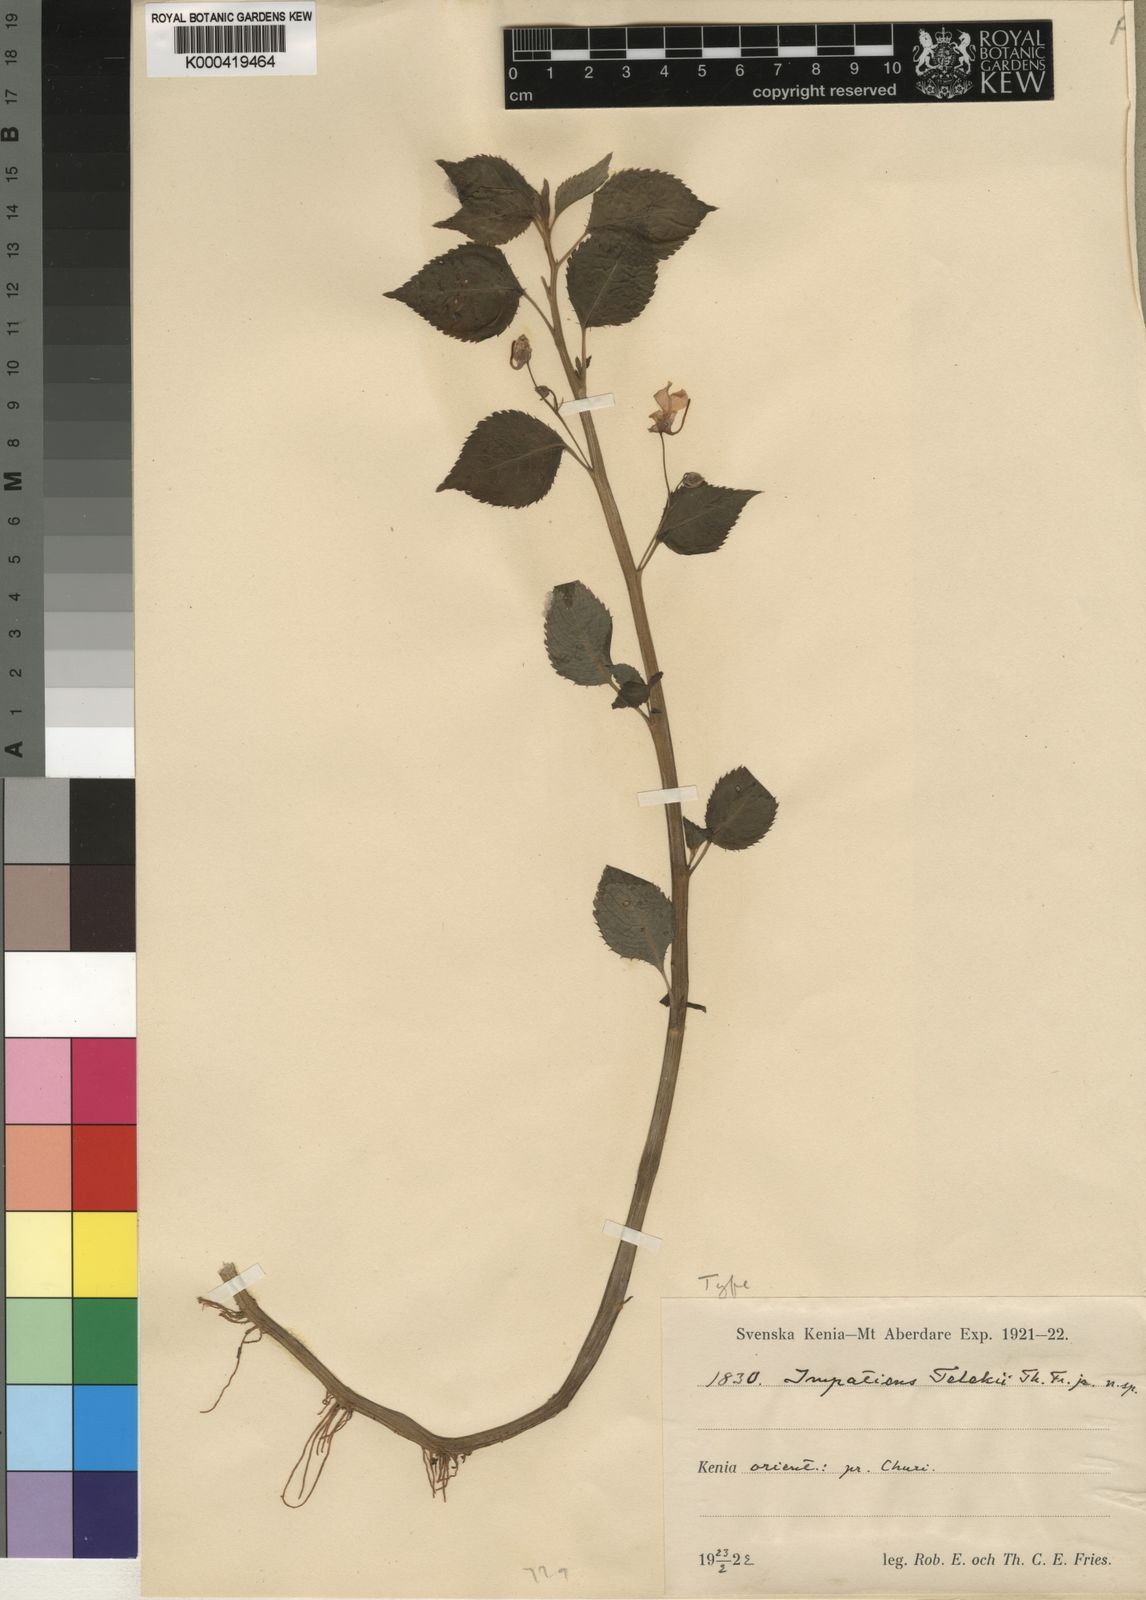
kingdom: Plantae
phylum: Tracheophyta
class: Magnoliopsida
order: Ericales
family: Balsaminaceae
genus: Impatiens
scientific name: Impatiens mildbraedii
